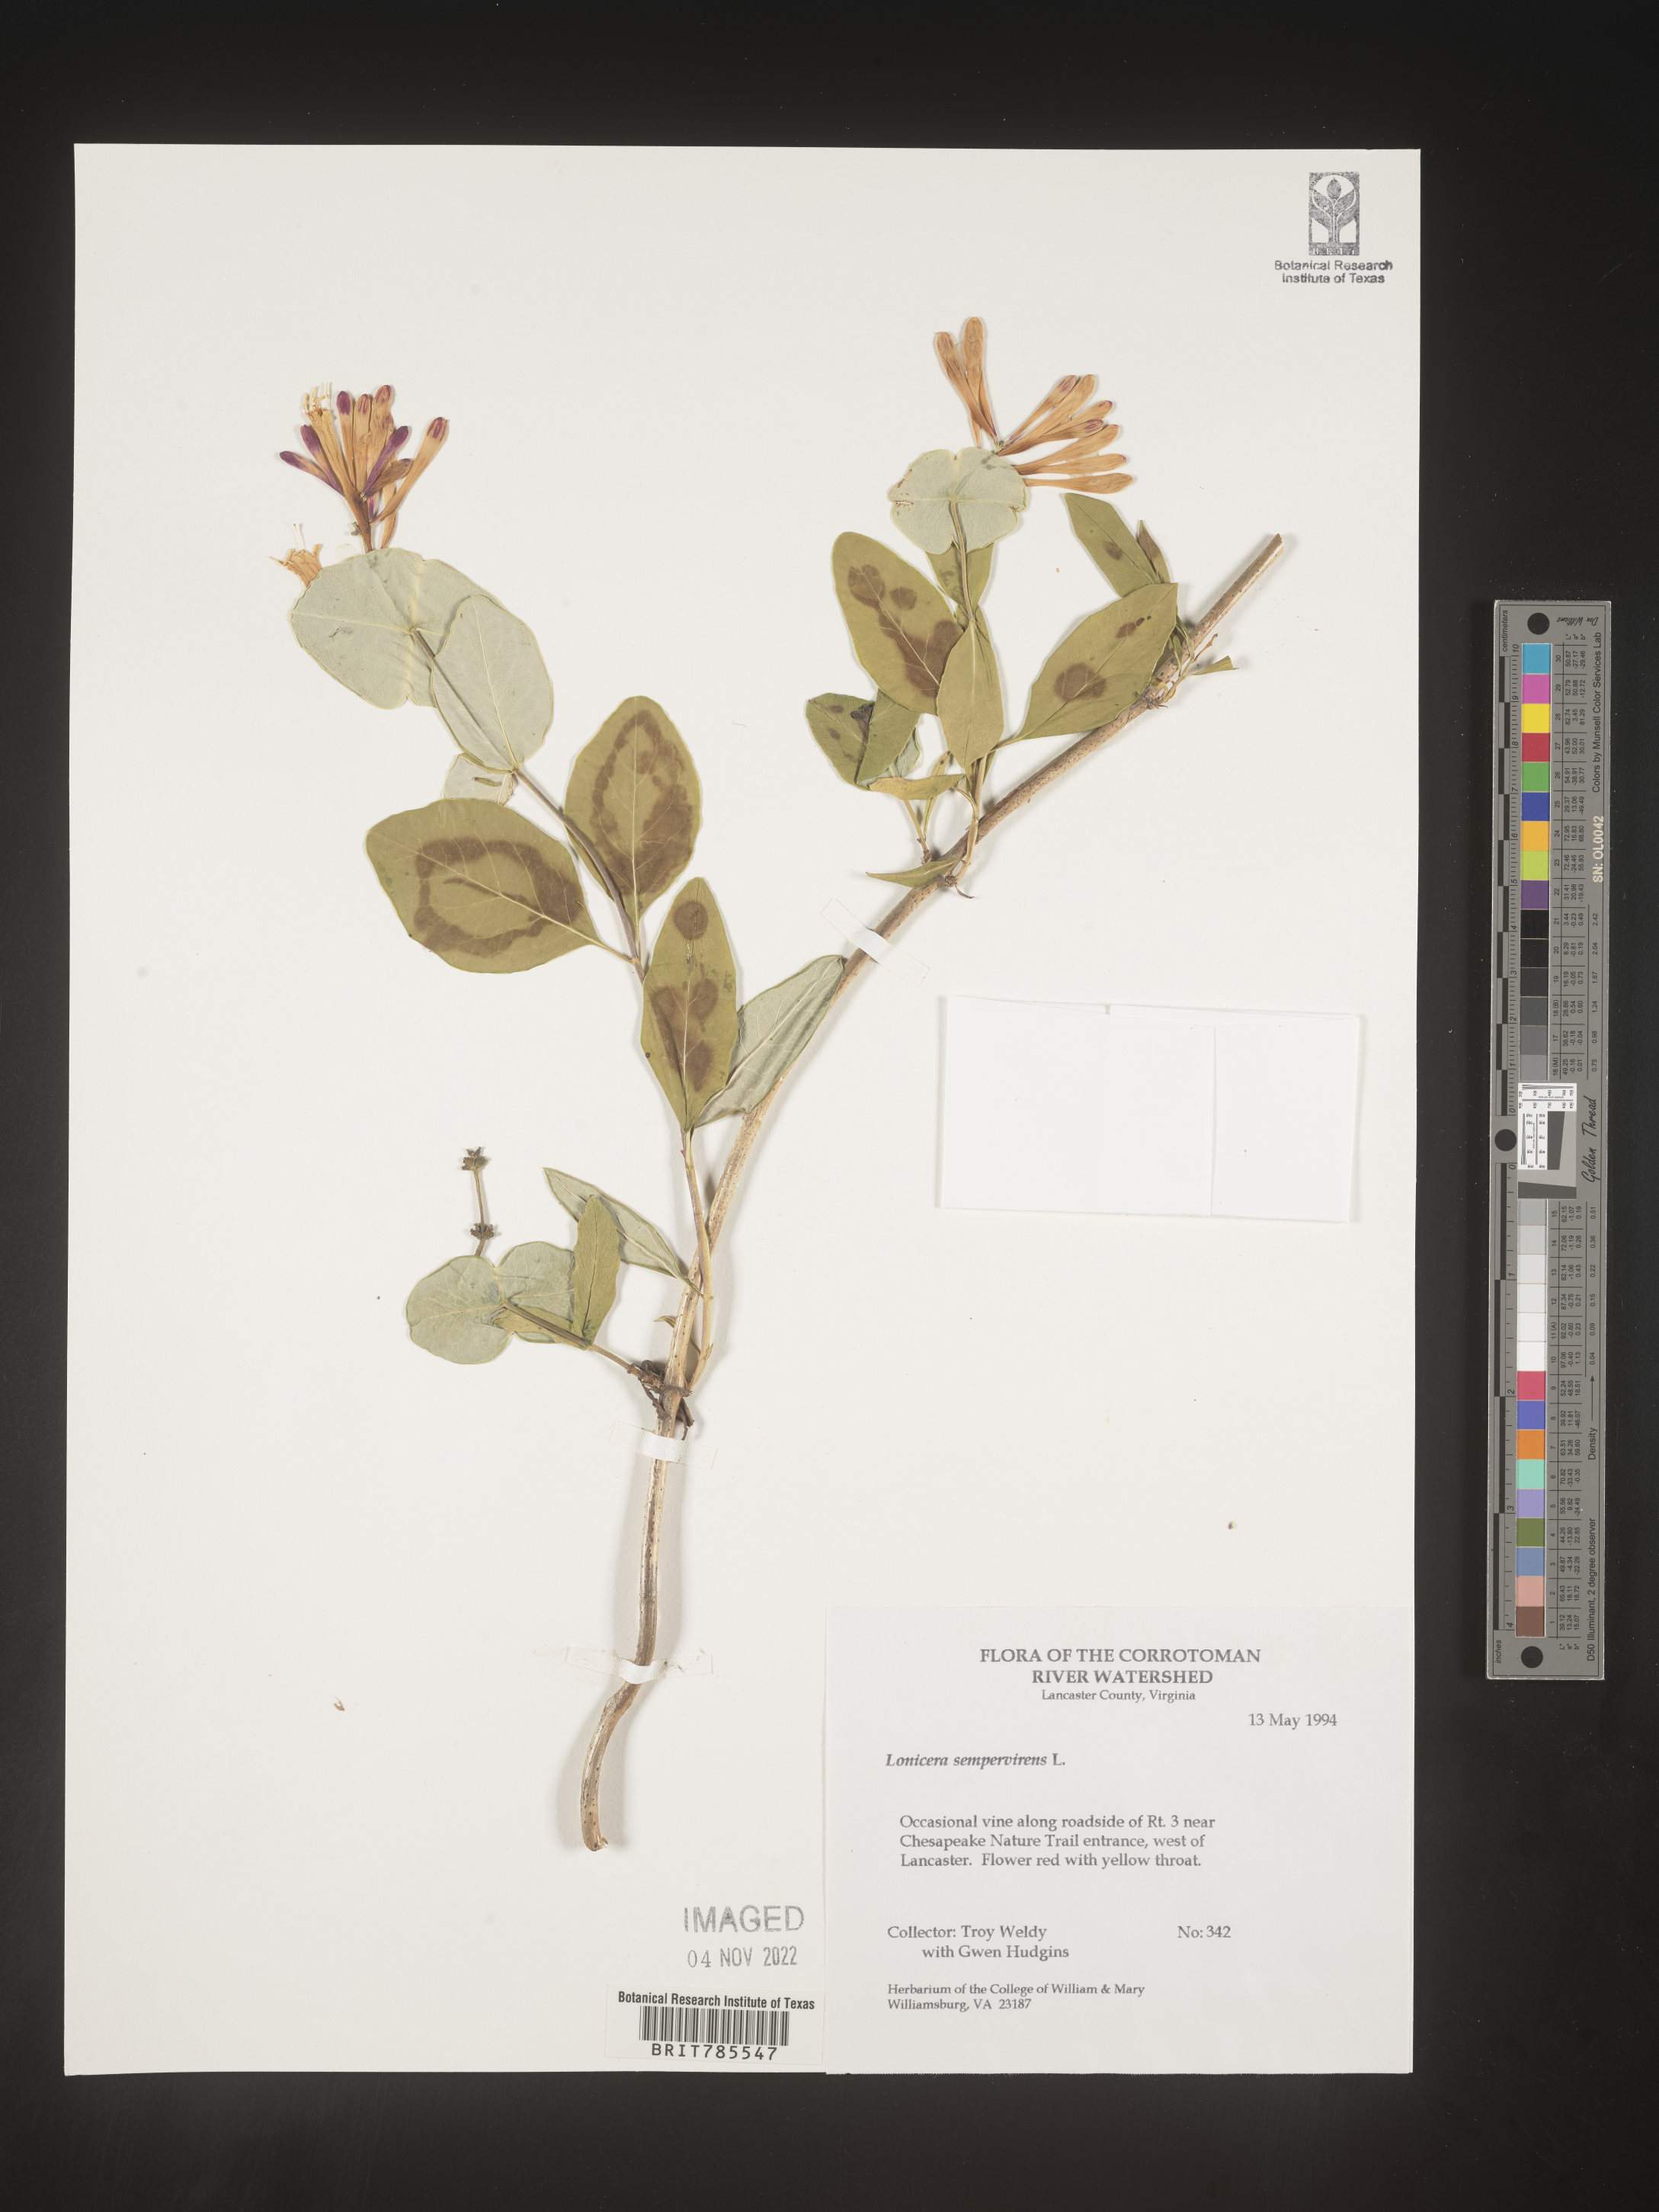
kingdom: Plantae
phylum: Tracheophyta
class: Magnoliopsida
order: Dipsacales
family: Caprifoliaceae
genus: Lonicera
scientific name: Lonicera sempervirens
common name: Coral honeysuckle
